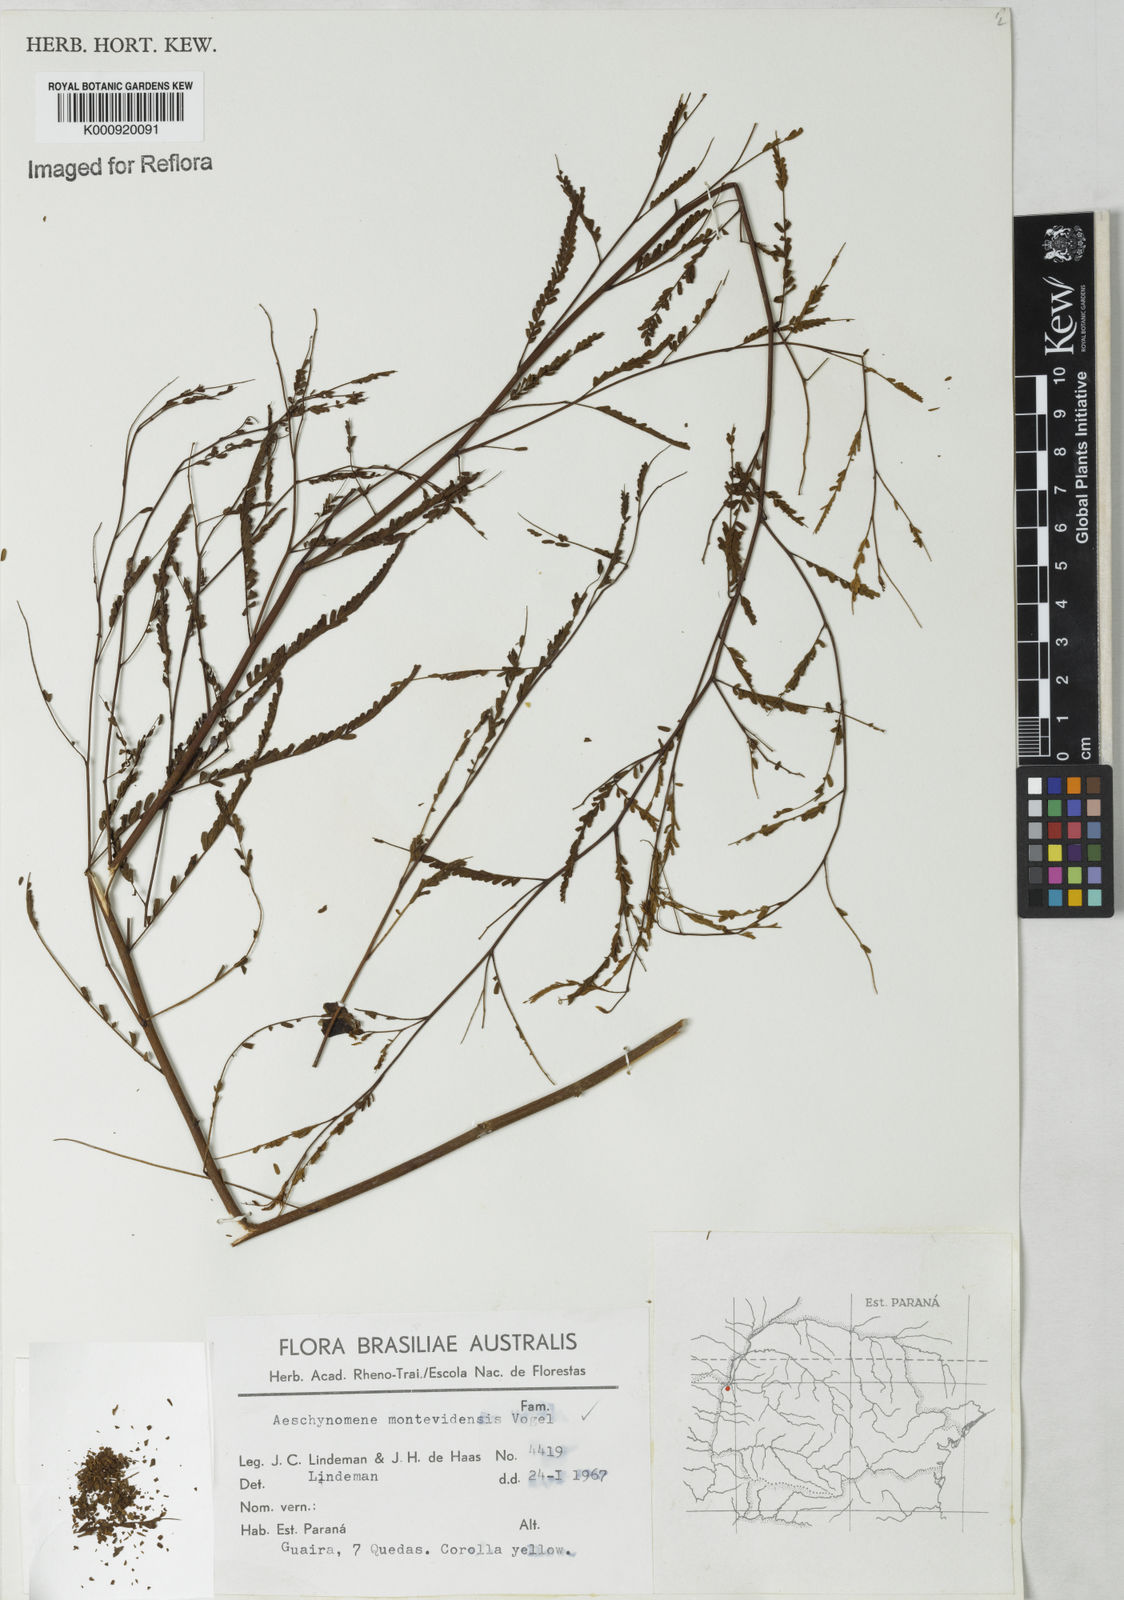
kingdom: Plantae
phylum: Tracheophyta
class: Magnoliopsida
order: Fabales
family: Fabaceae
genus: Aeschynomene
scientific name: Aeschynomene montevidensis
